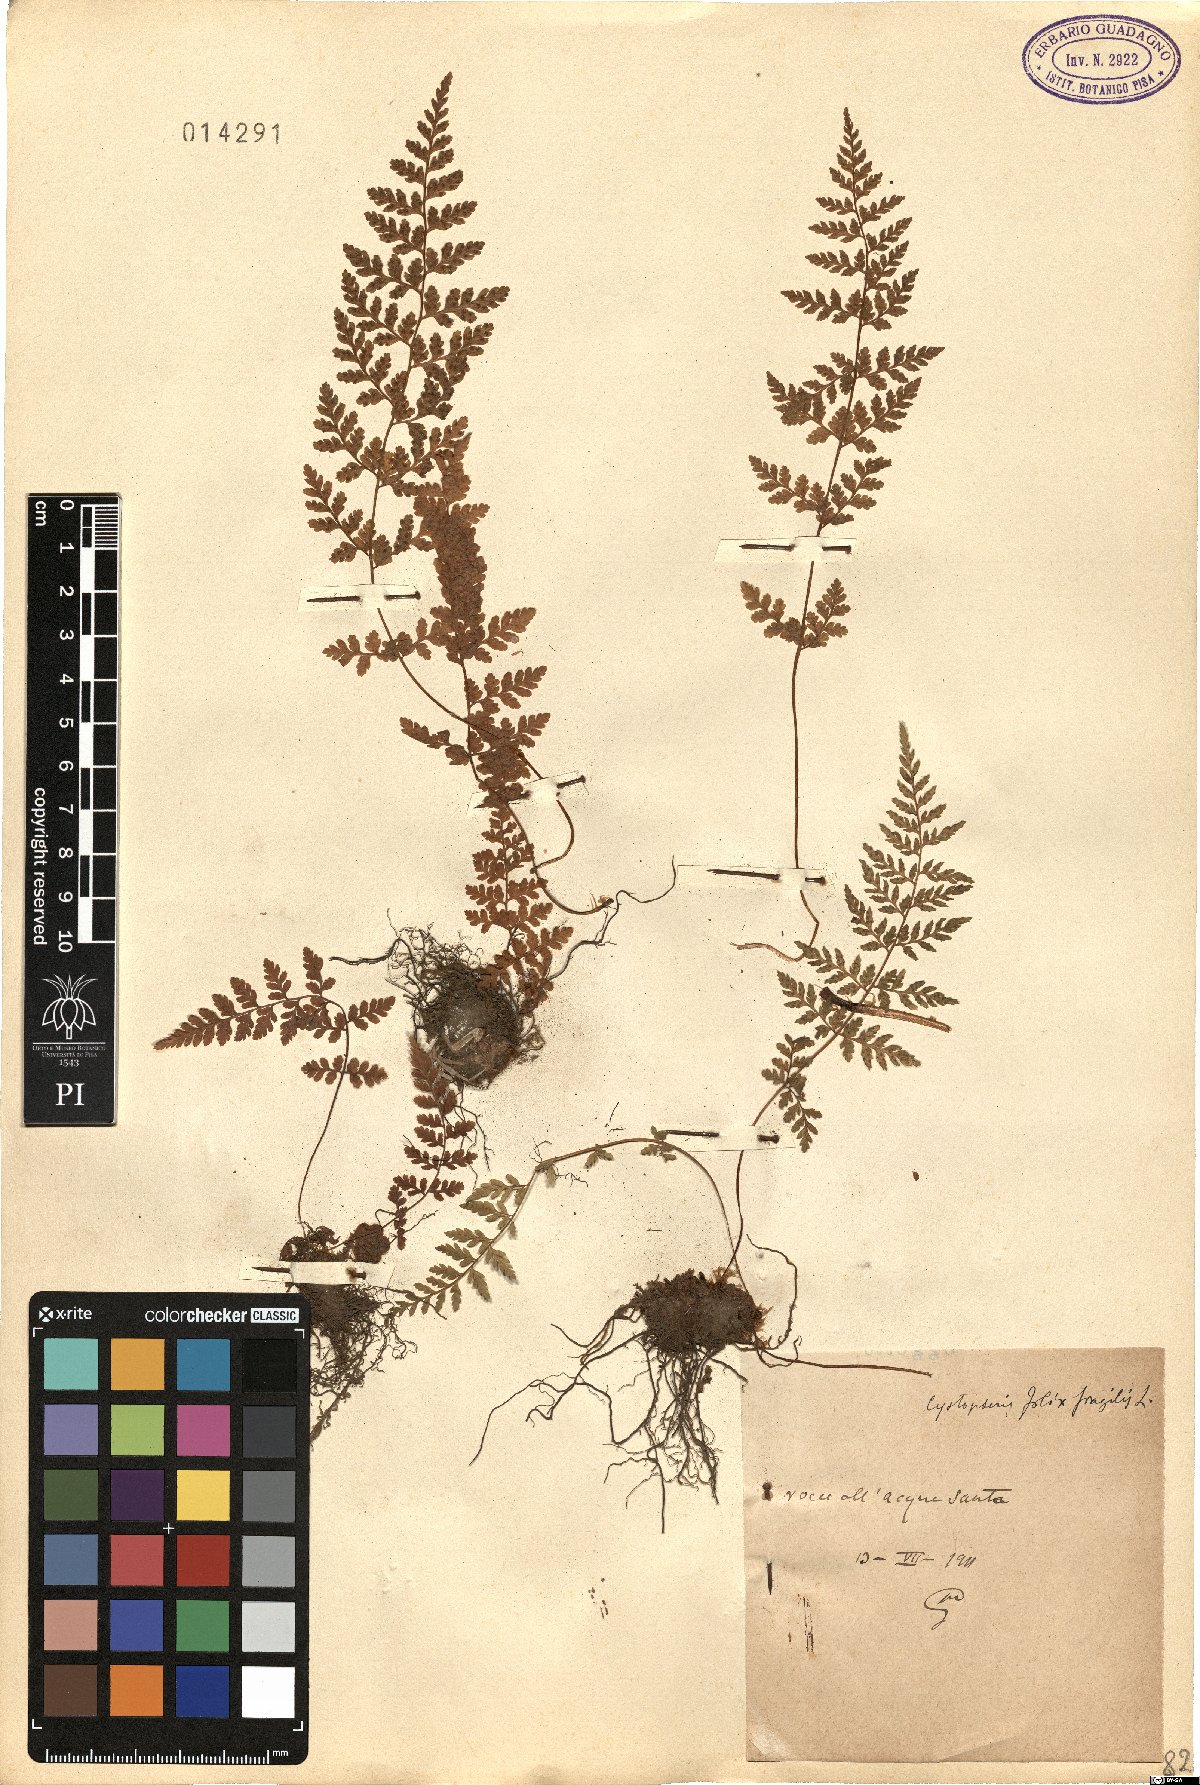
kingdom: Plantae
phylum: Tracheophyta
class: Polypodiopsida
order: Polypodiales
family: Cystopteridaceae
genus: Cystopteris
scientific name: Cystopteris fragilis
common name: Brittle bladder fern
